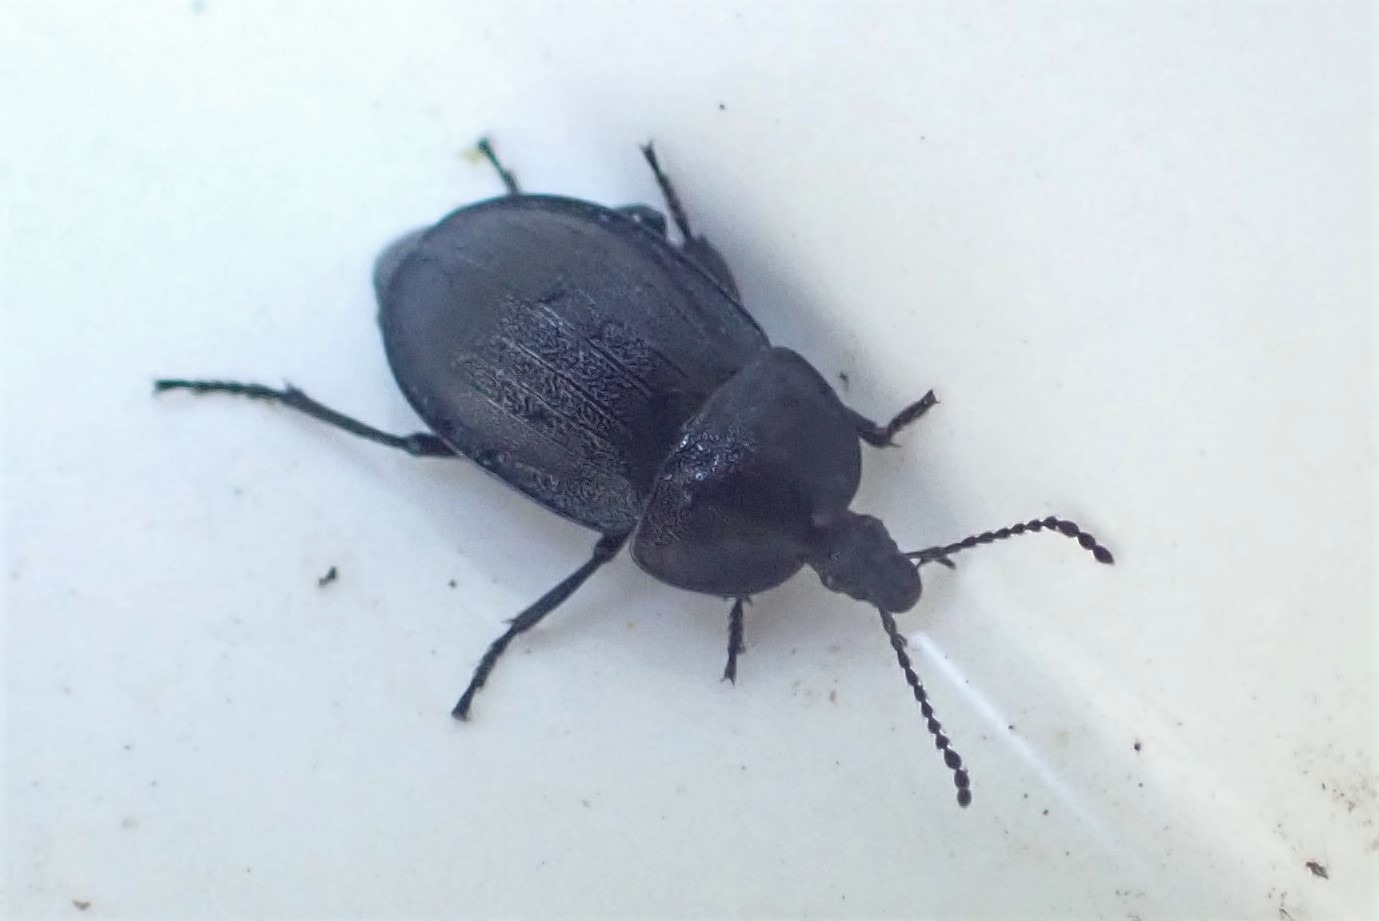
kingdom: Animalia
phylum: Arthropoda
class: Insecta
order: Coleoptera
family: Staphylinidae
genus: Silpha
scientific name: Silpha atrata
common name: Snegleådselbille
